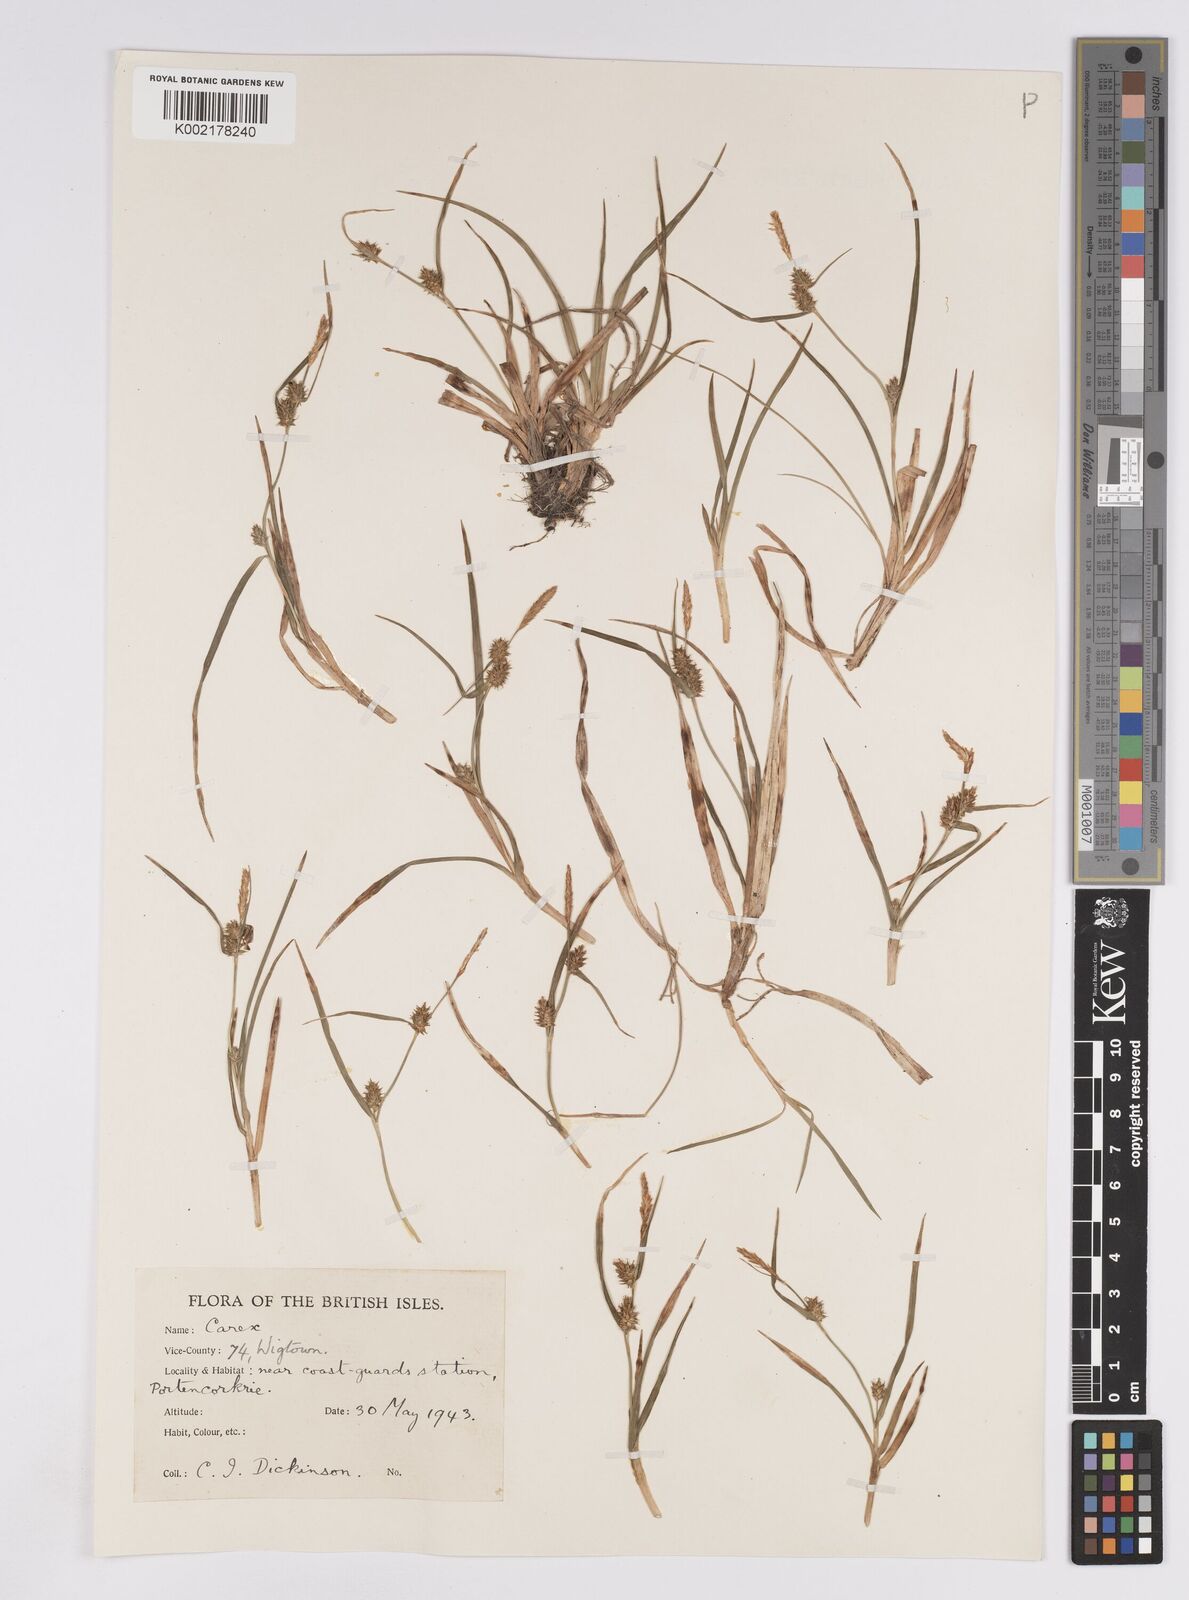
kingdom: Plantae
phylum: Tracheophyta
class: Liliopsida
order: Poales
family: Cyperaceae
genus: Carex
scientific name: Carex demissa
